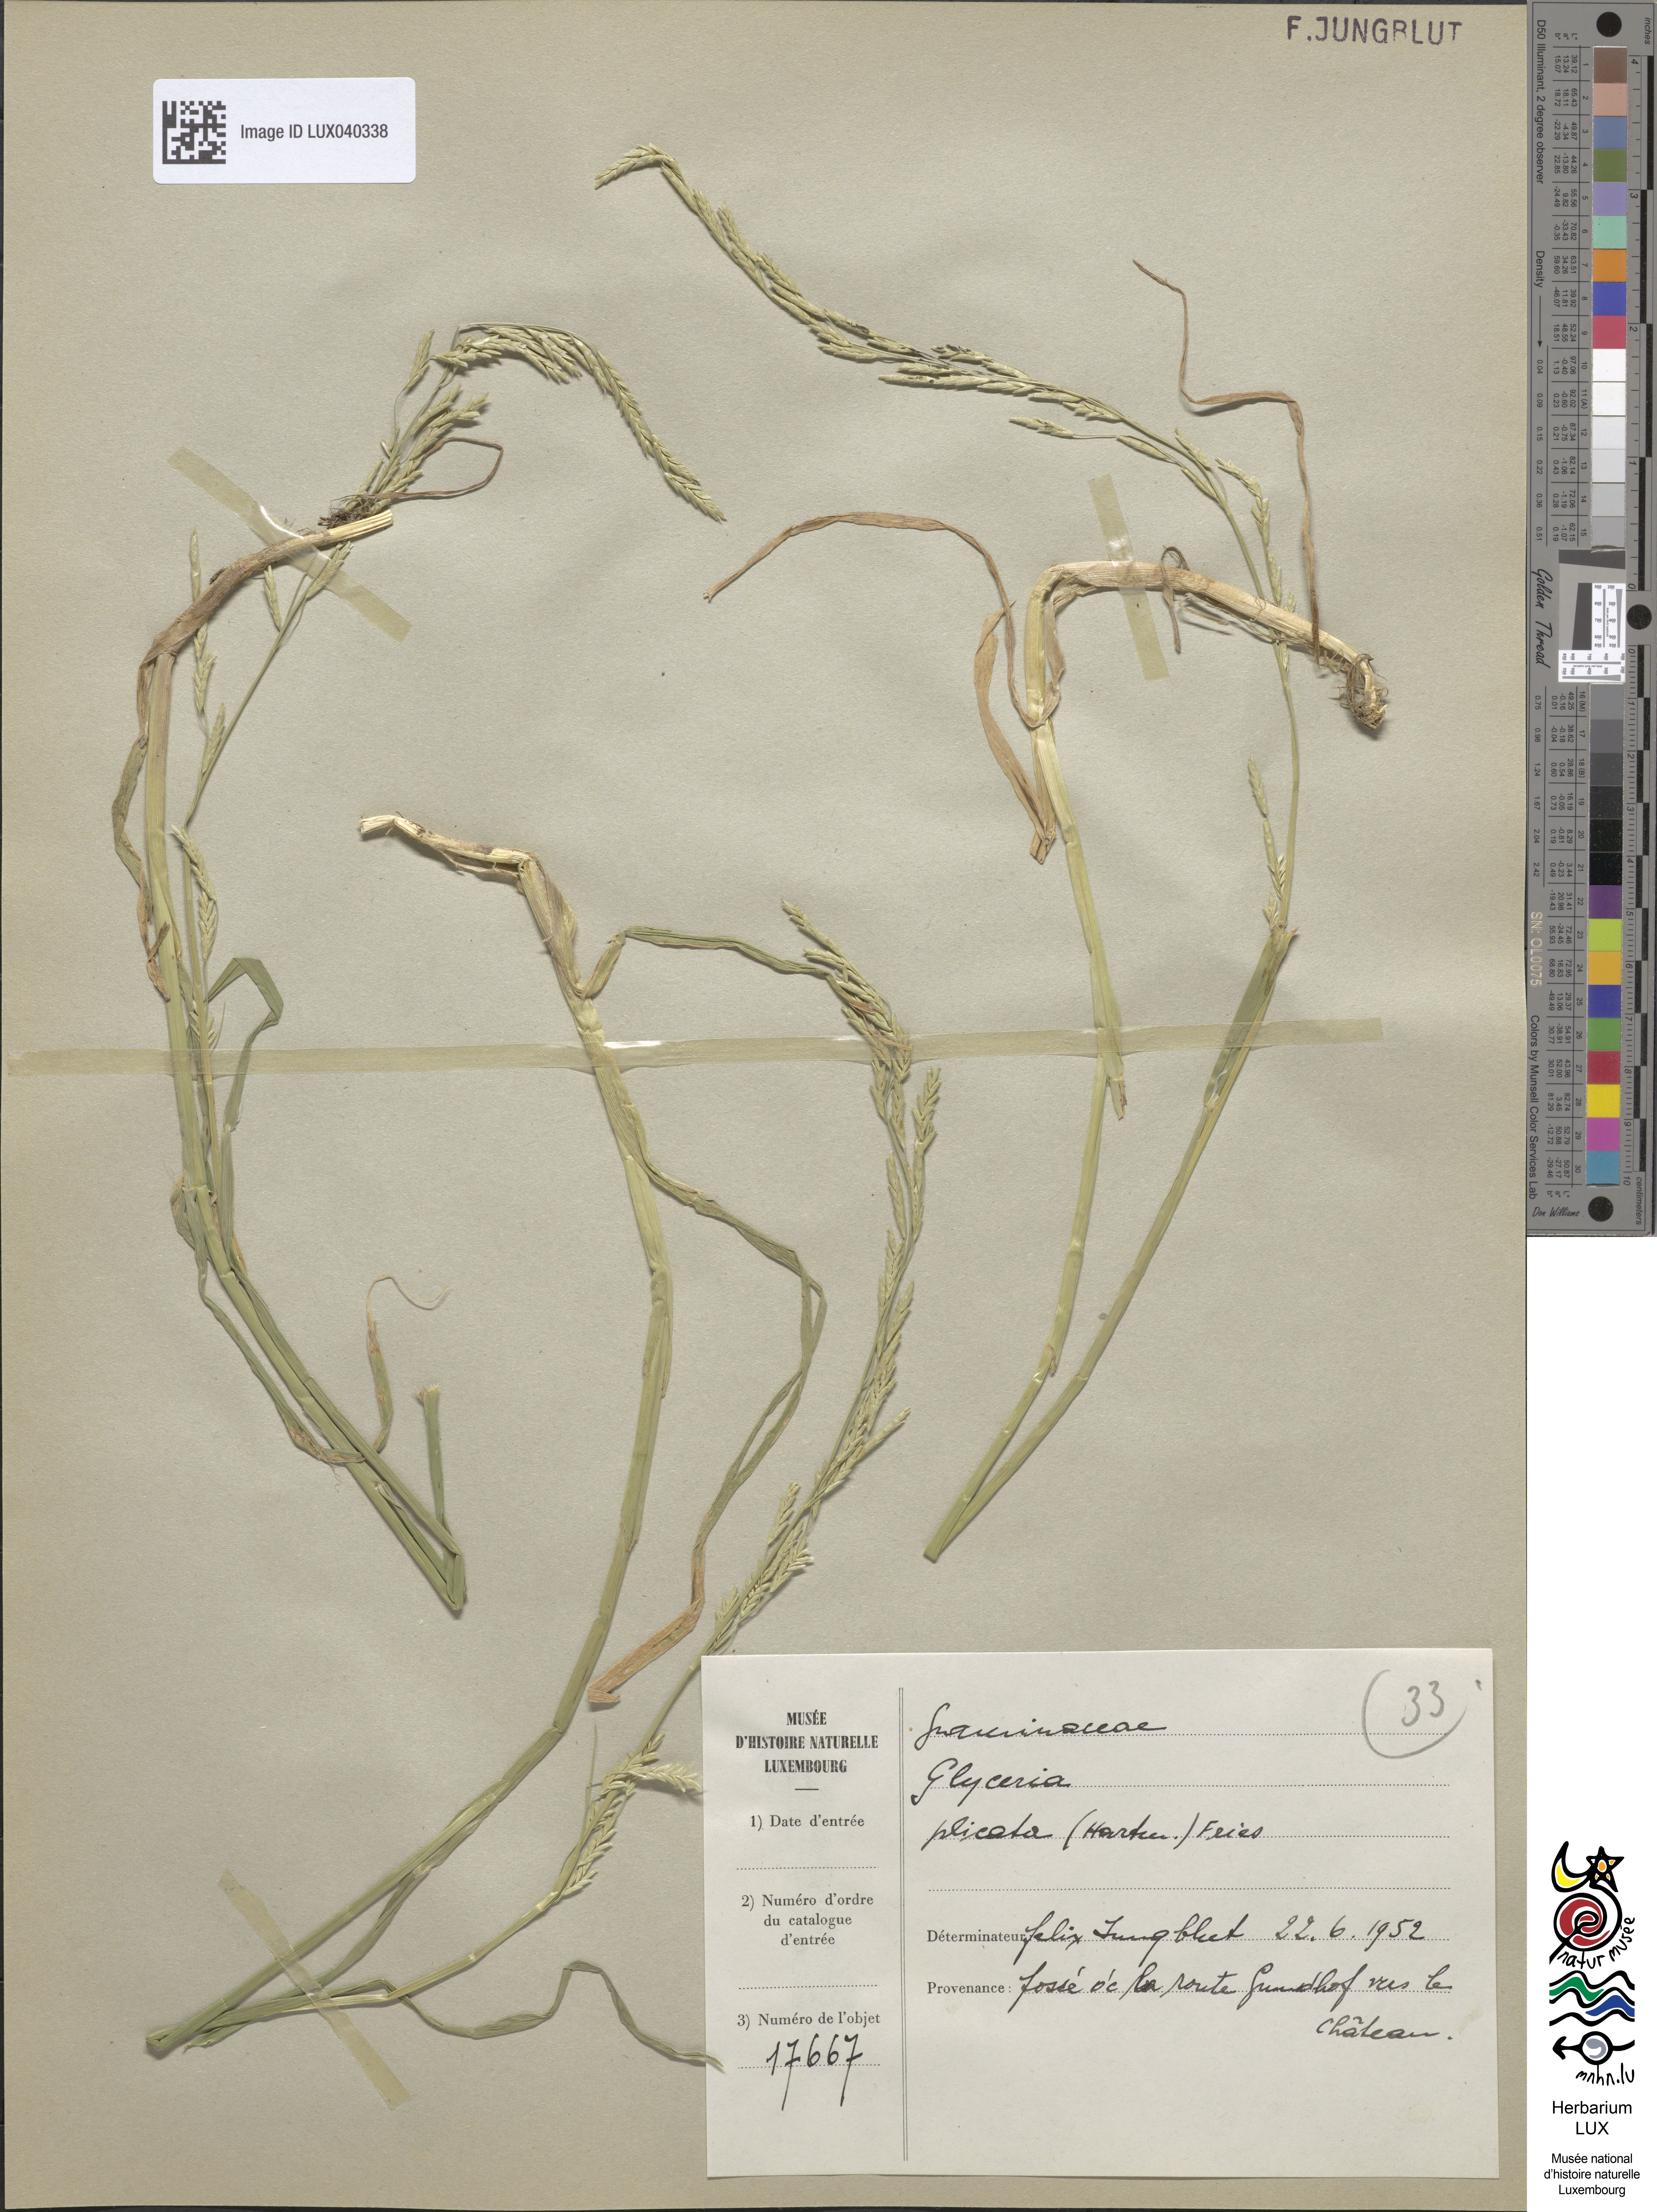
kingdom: Plantae
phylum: Tracheophyta
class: Liliopsida
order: Poales
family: Poaceae
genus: Glyceria
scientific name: Glyceria notata
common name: Plicate sweet-grass
